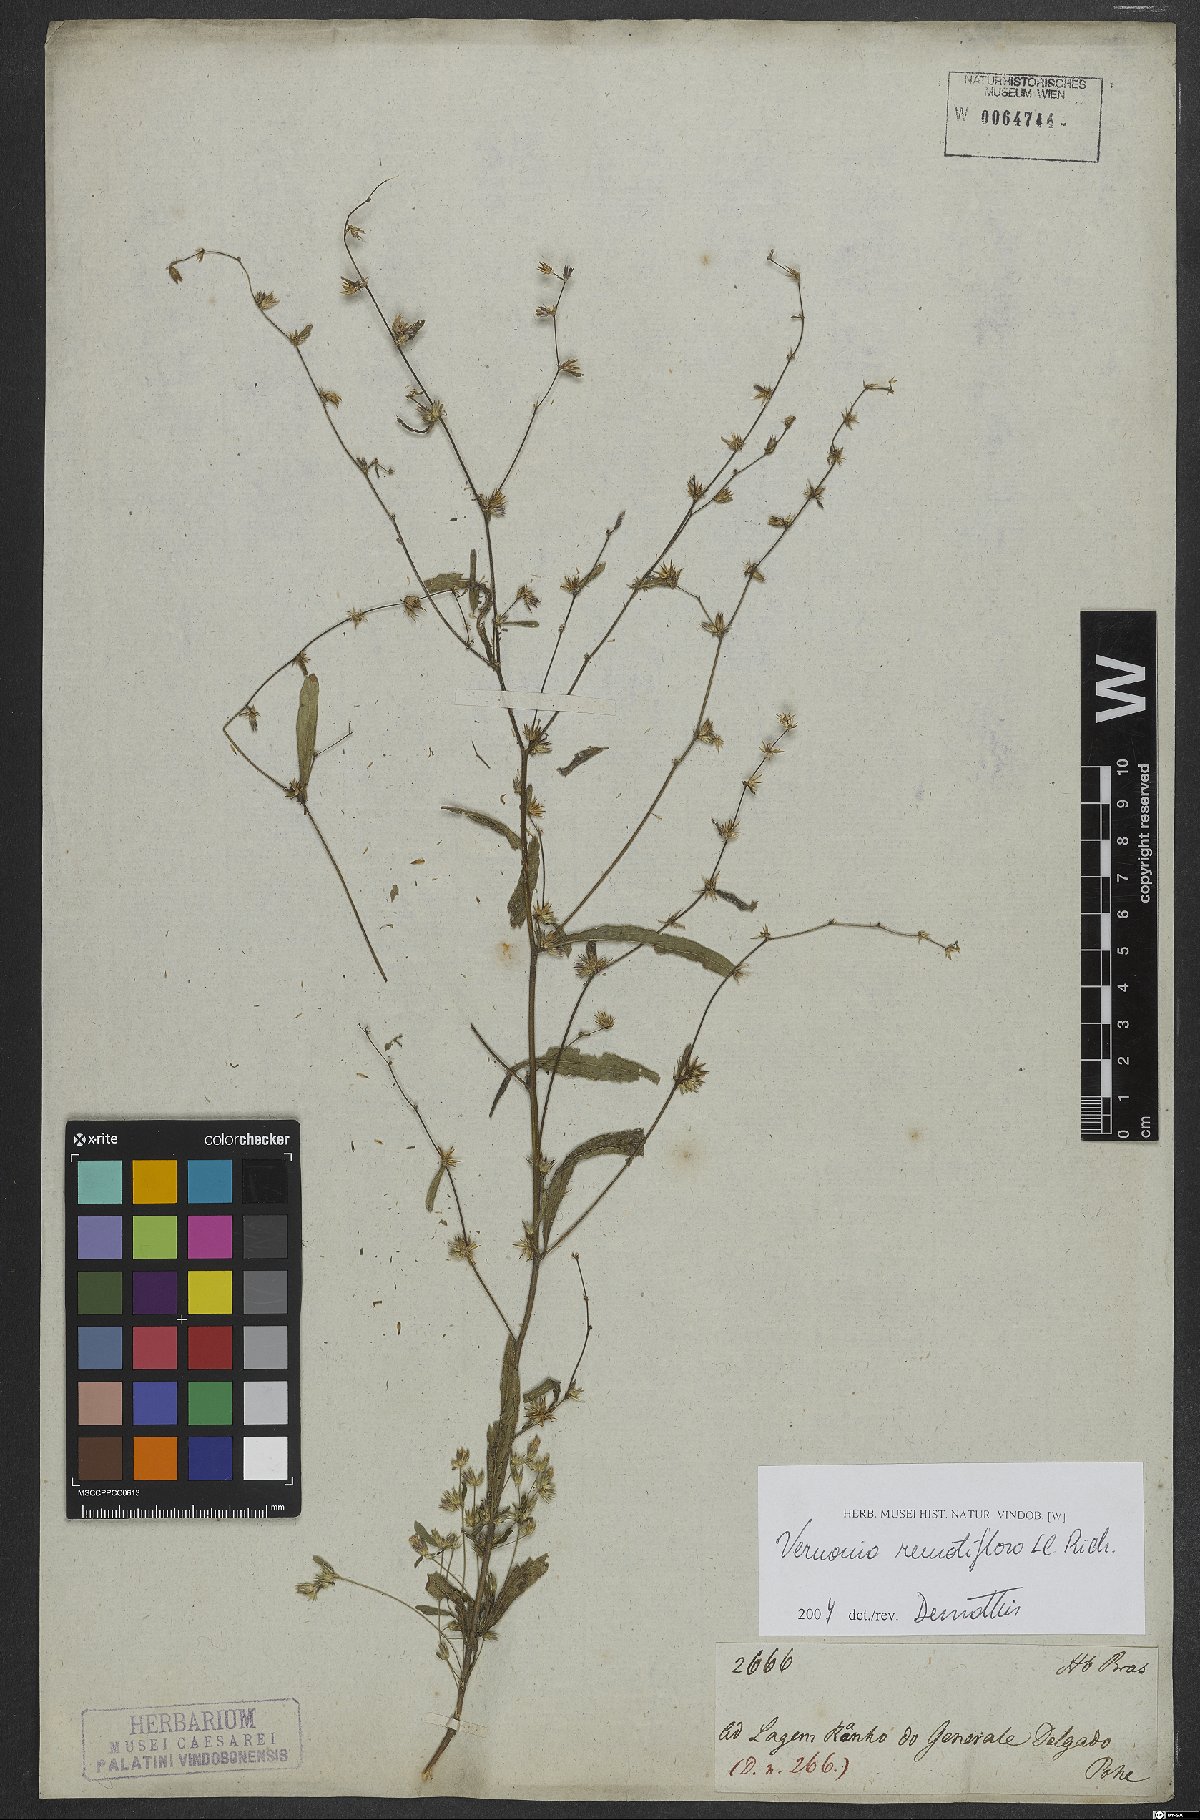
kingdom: Plantae
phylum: Tracheophyta
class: Magnoliopsida
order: Asterales
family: Asteraceae
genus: Lepidaploa
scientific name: Lepidaploa remotiflora
